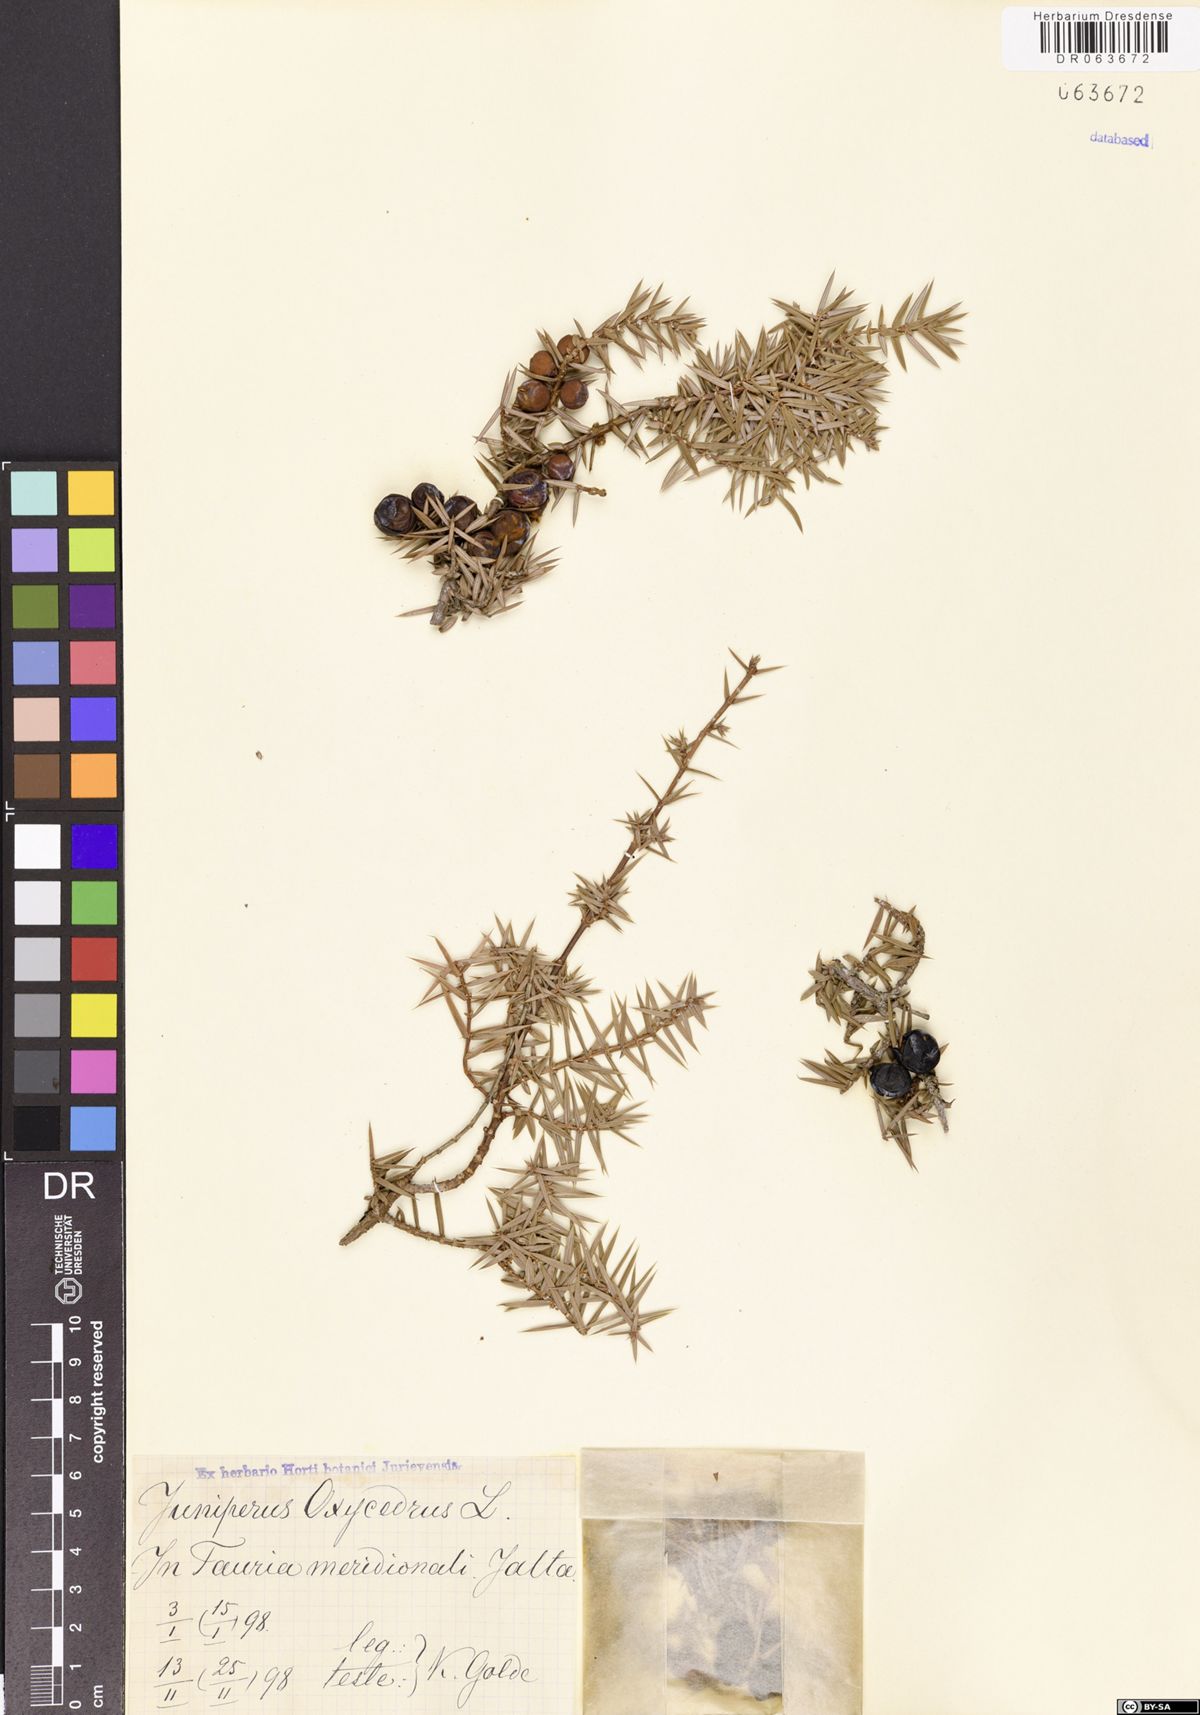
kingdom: Plantae
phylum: Tracheophyta
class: Pinopsida
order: Pinales
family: Cupressaceae
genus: Juniperus
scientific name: Juniperus oxycedrus
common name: Prickly juniper
